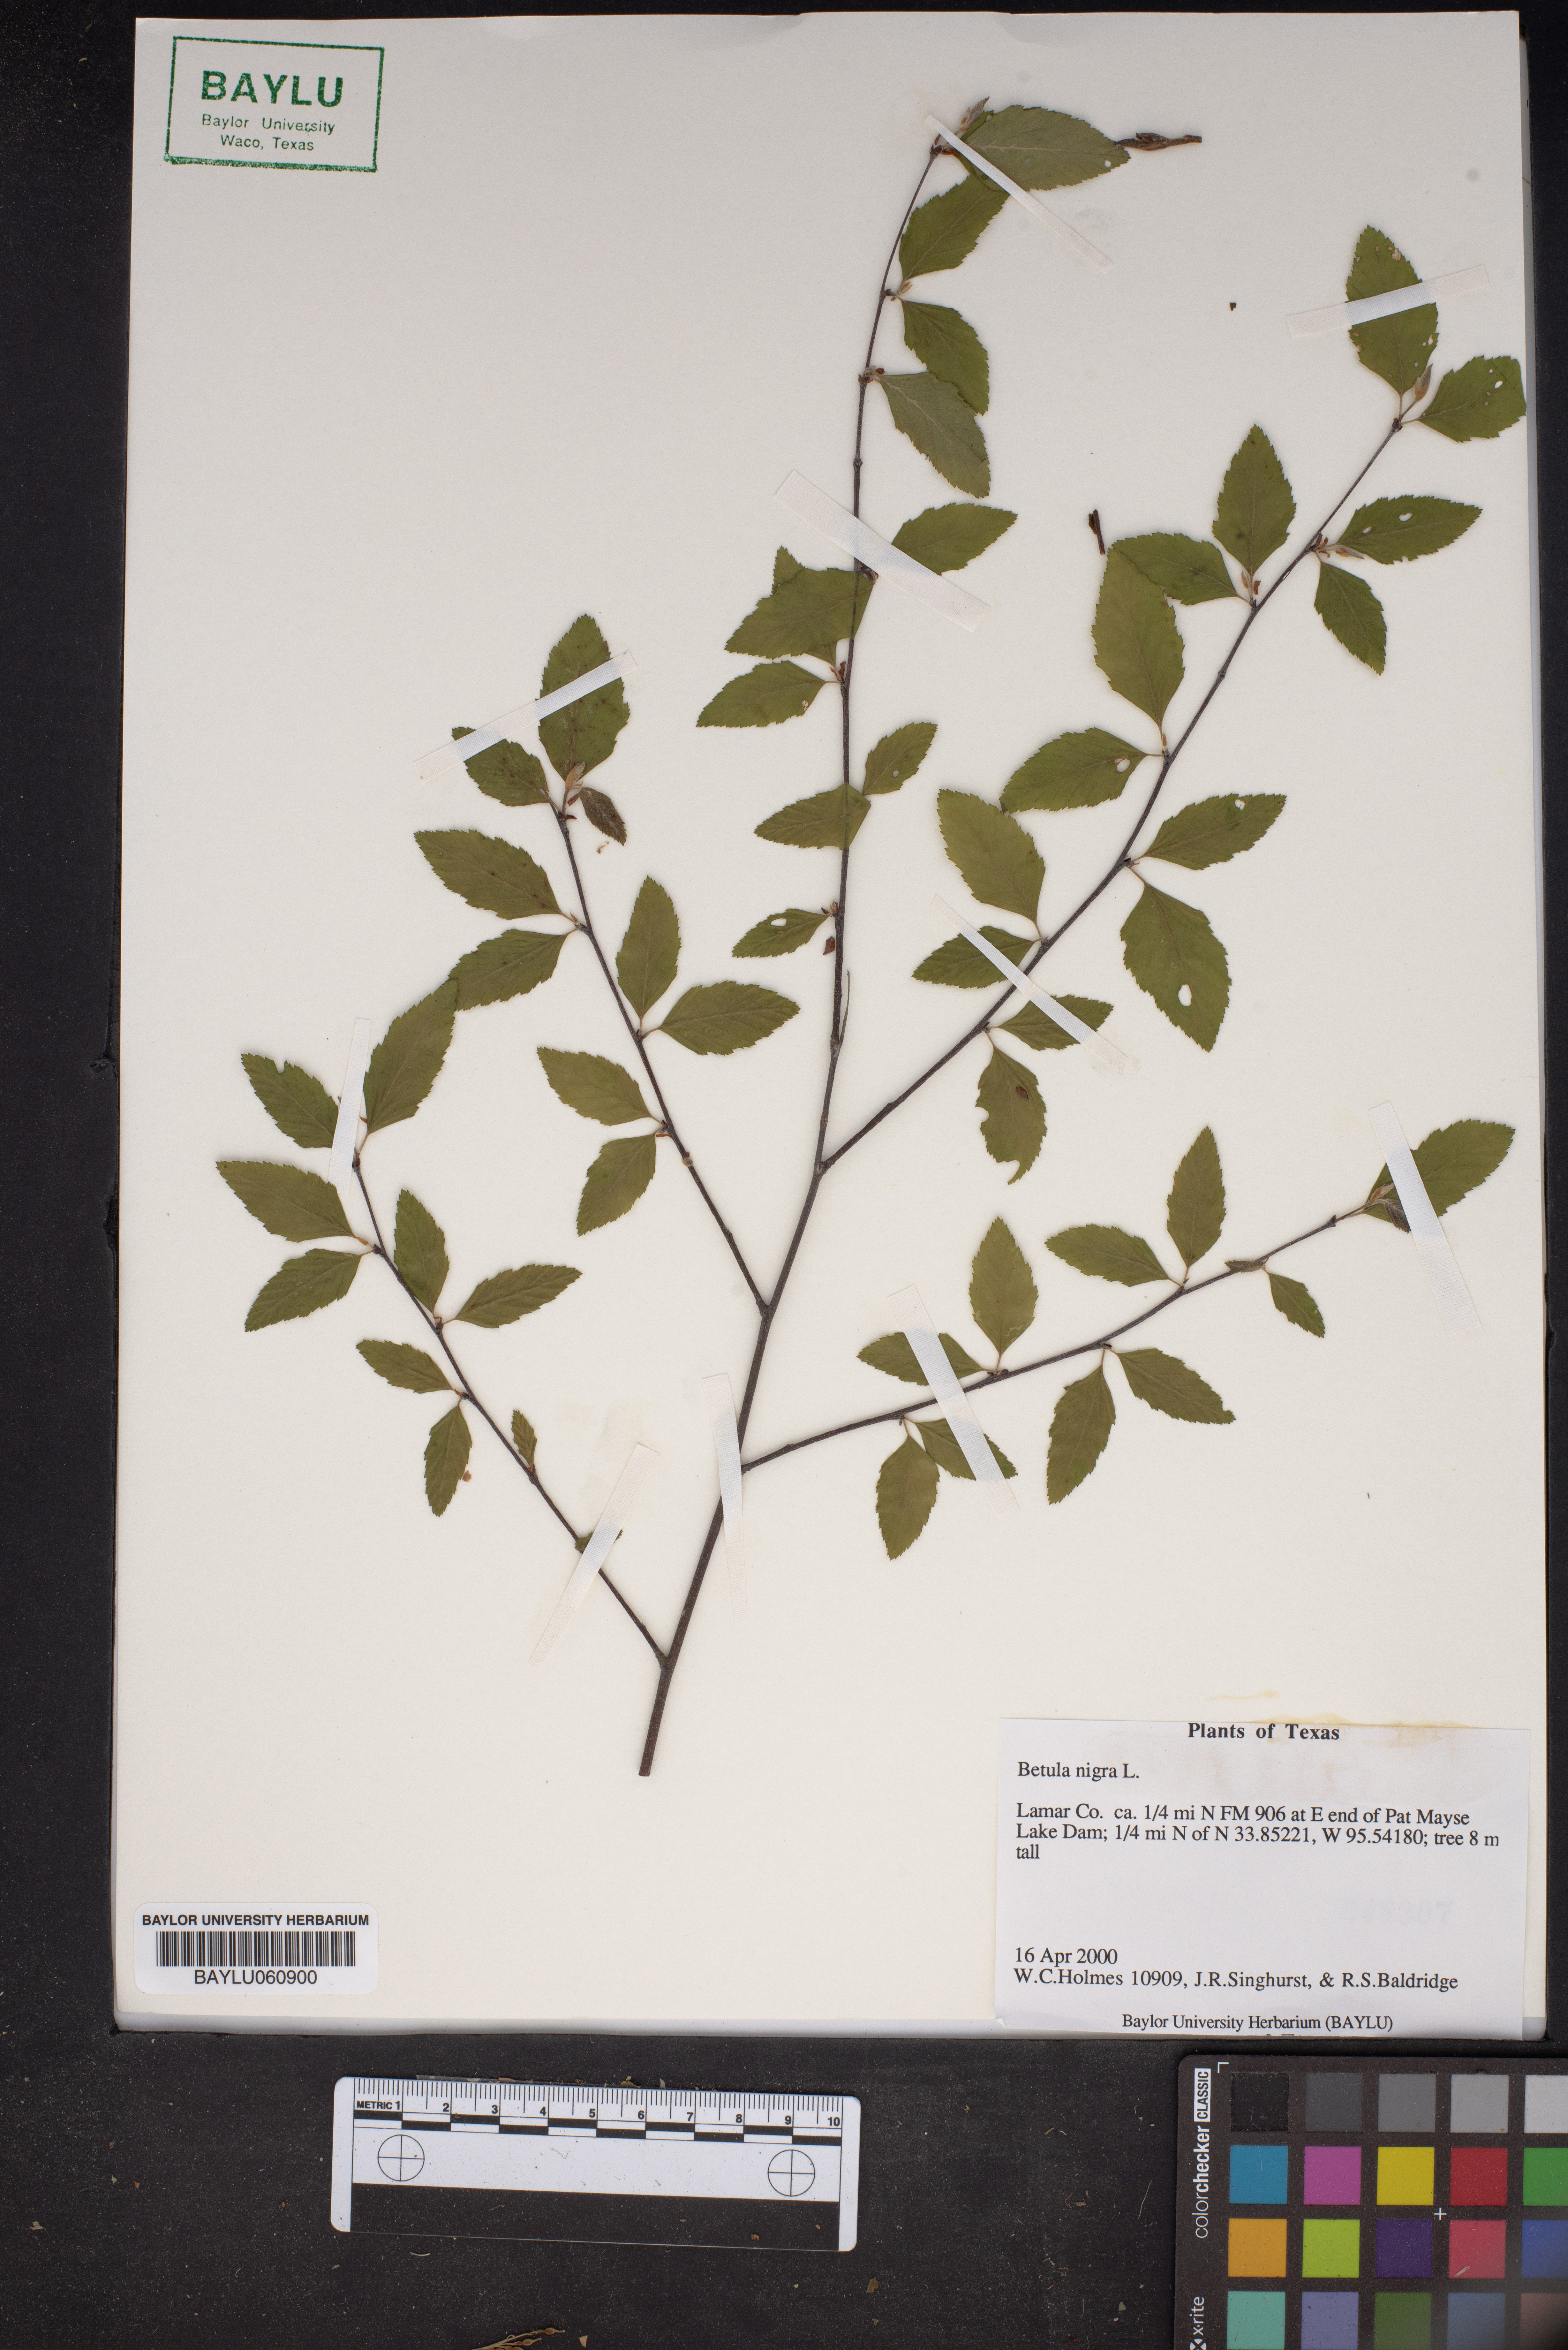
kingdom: Plantae
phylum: Tracheophyta
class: Magnoliopsida
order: Fagales
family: Betulaceae
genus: Betula
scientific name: Betula nigra
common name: Black birch
